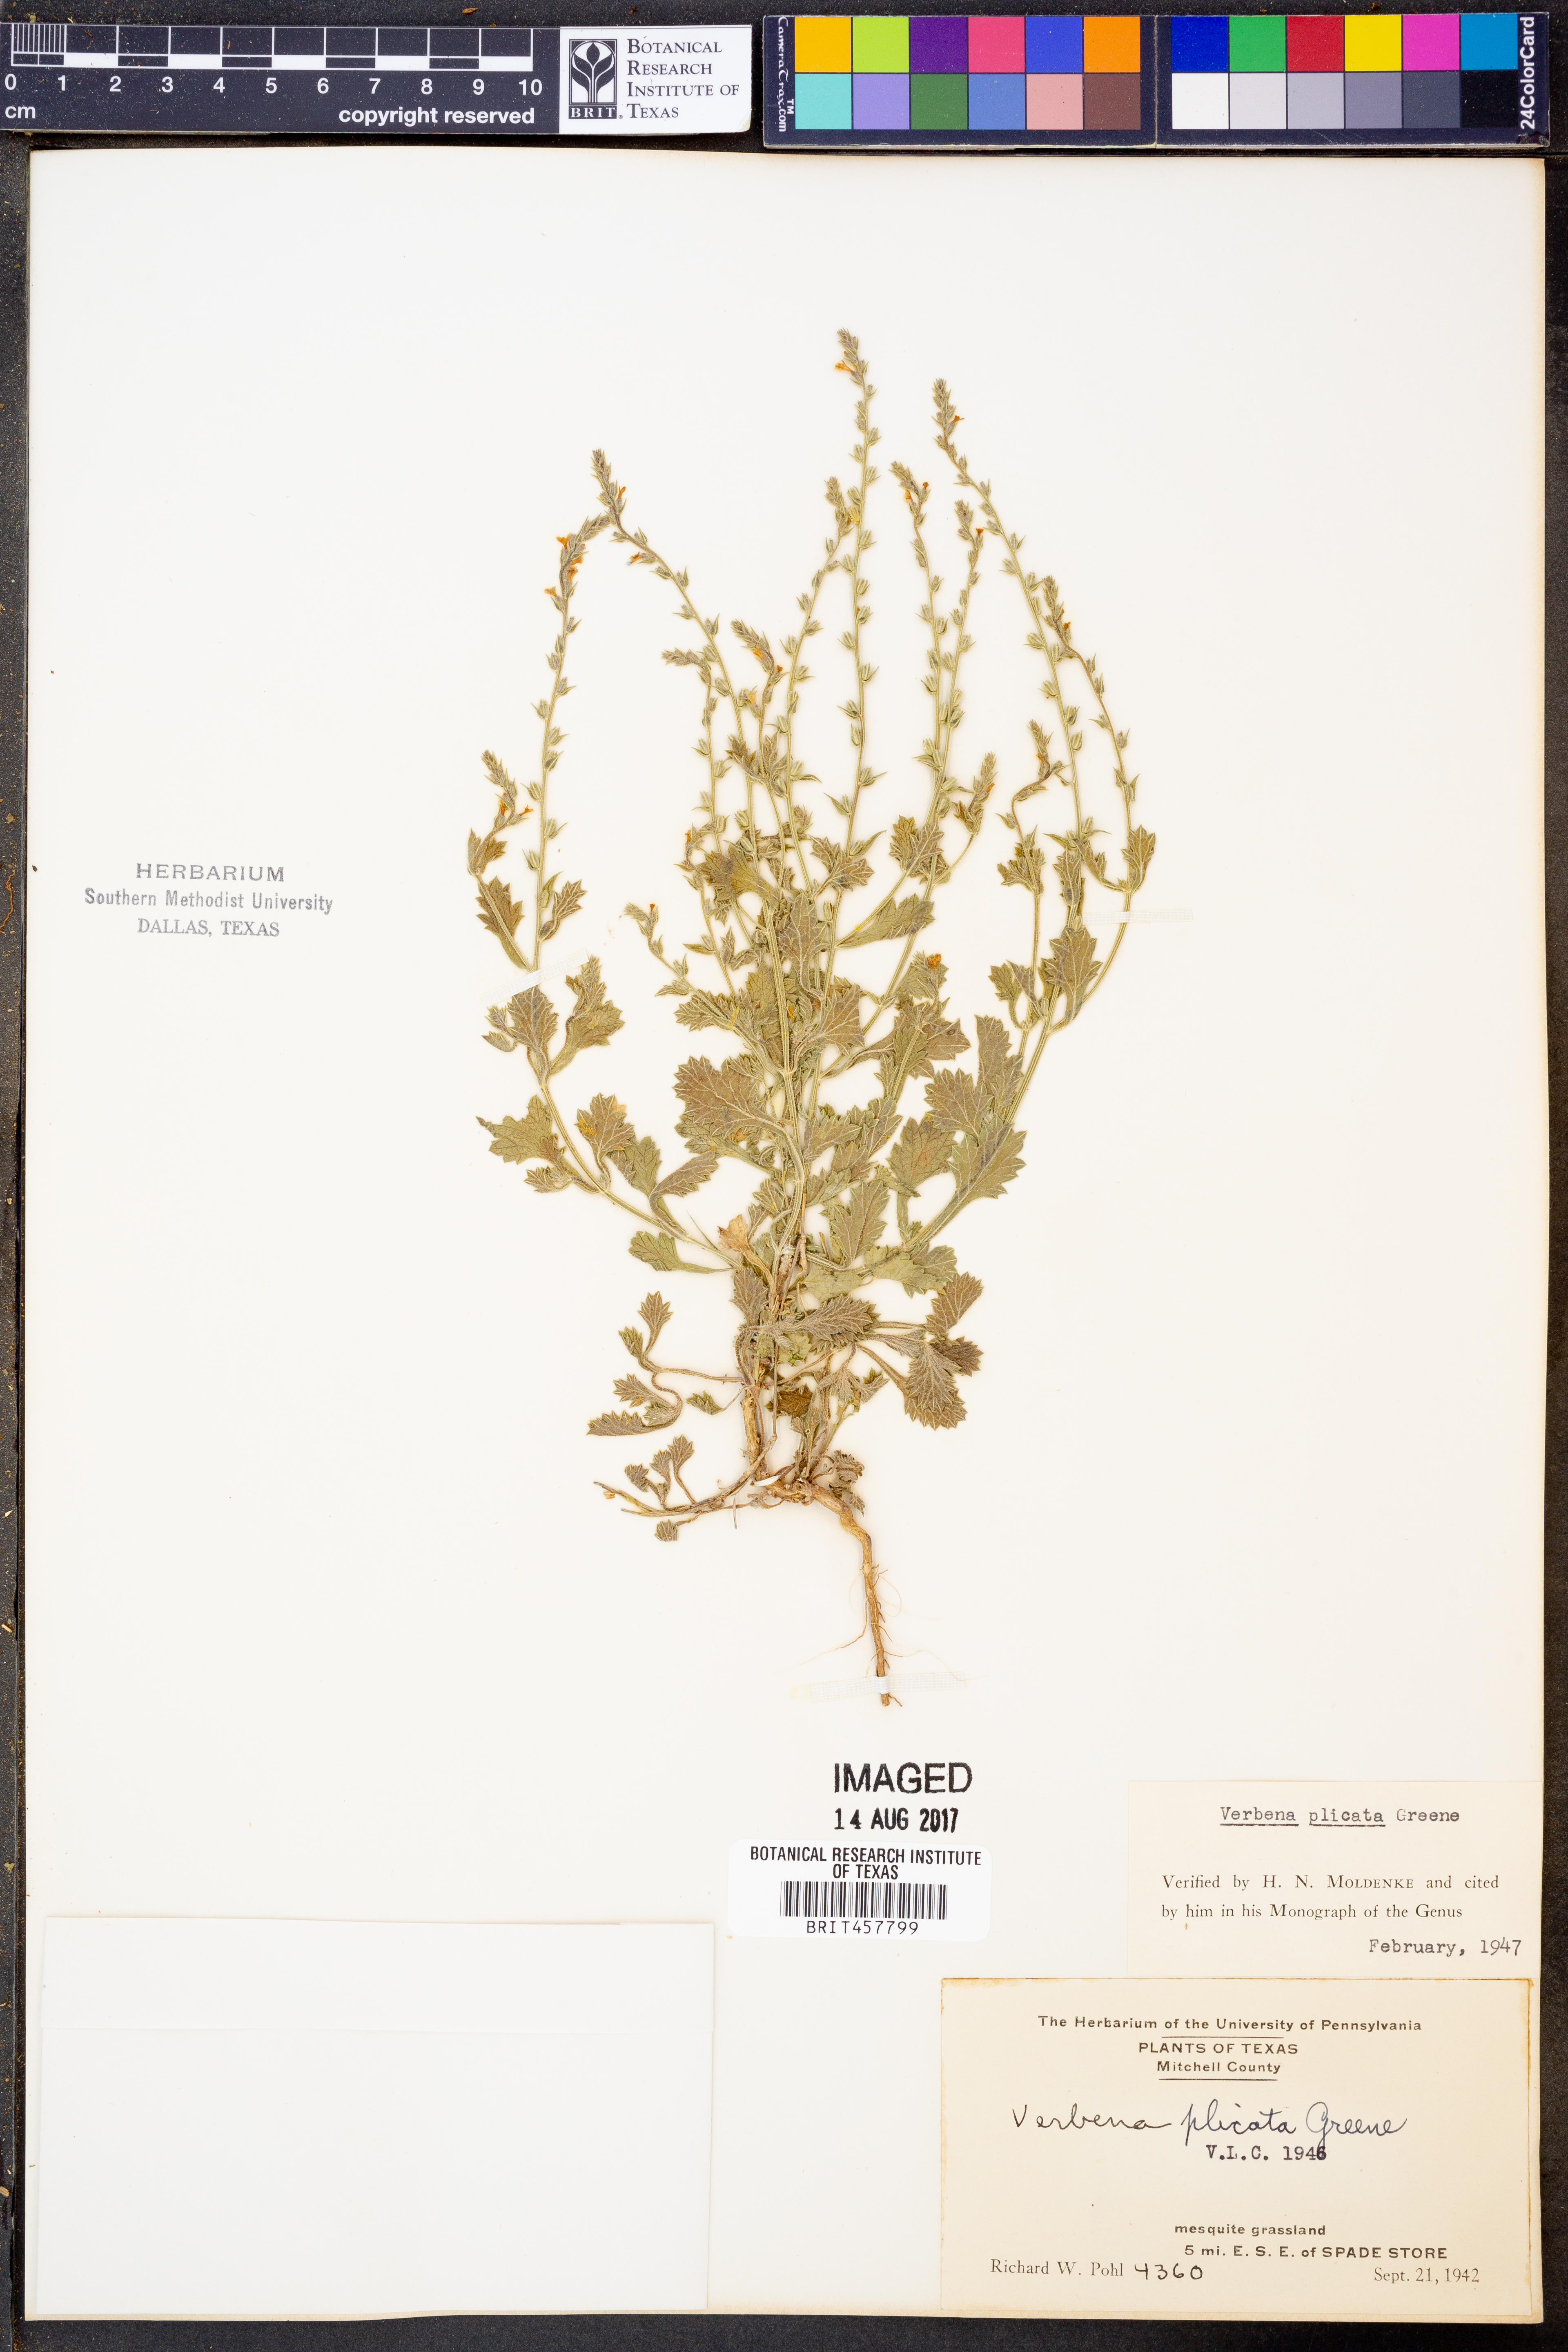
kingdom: Plantae
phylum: Tracheophyta
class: Magnoliopsida
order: Lamiales
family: Verbenaceae
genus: Verbena
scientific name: Verbena plicata
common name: Fan-leaf vervain
